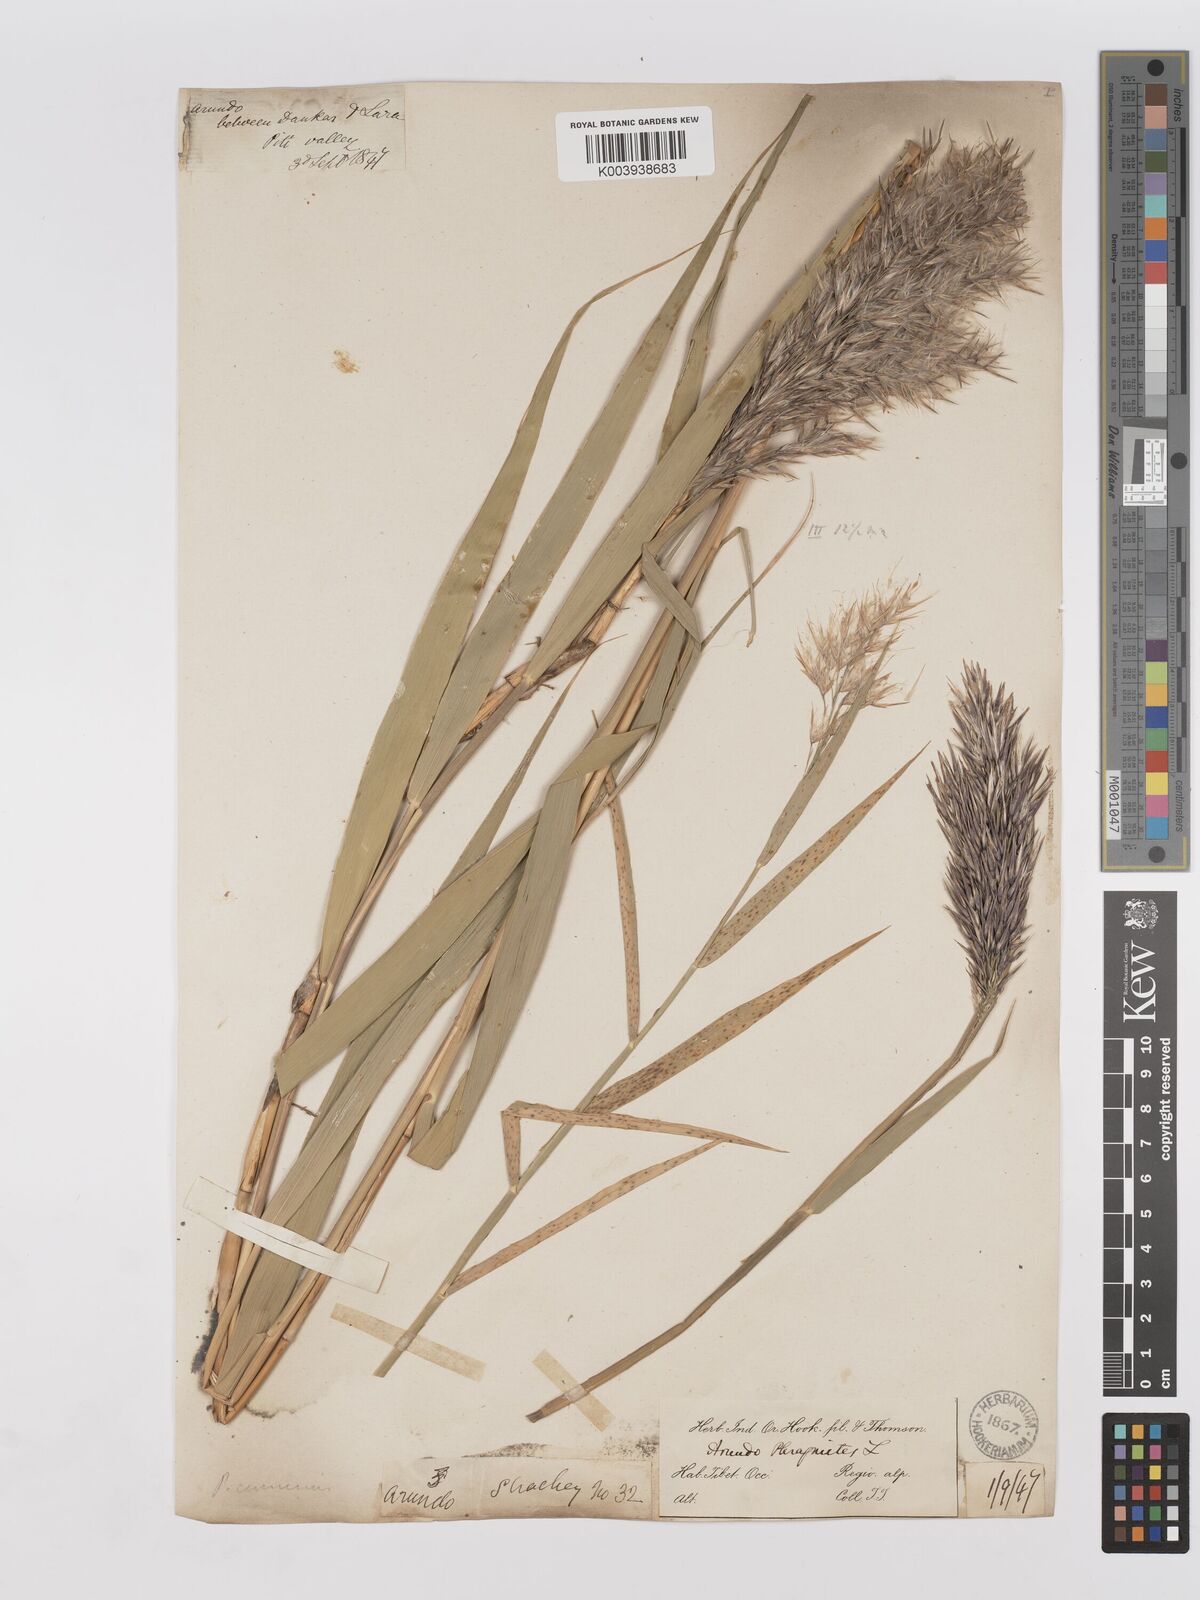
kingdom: Plantae
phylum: Tracheophyta
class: Liliopsida
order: Poales
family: Poaceae
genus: Phragmites
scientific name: Phragmites australis
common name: Common reed
